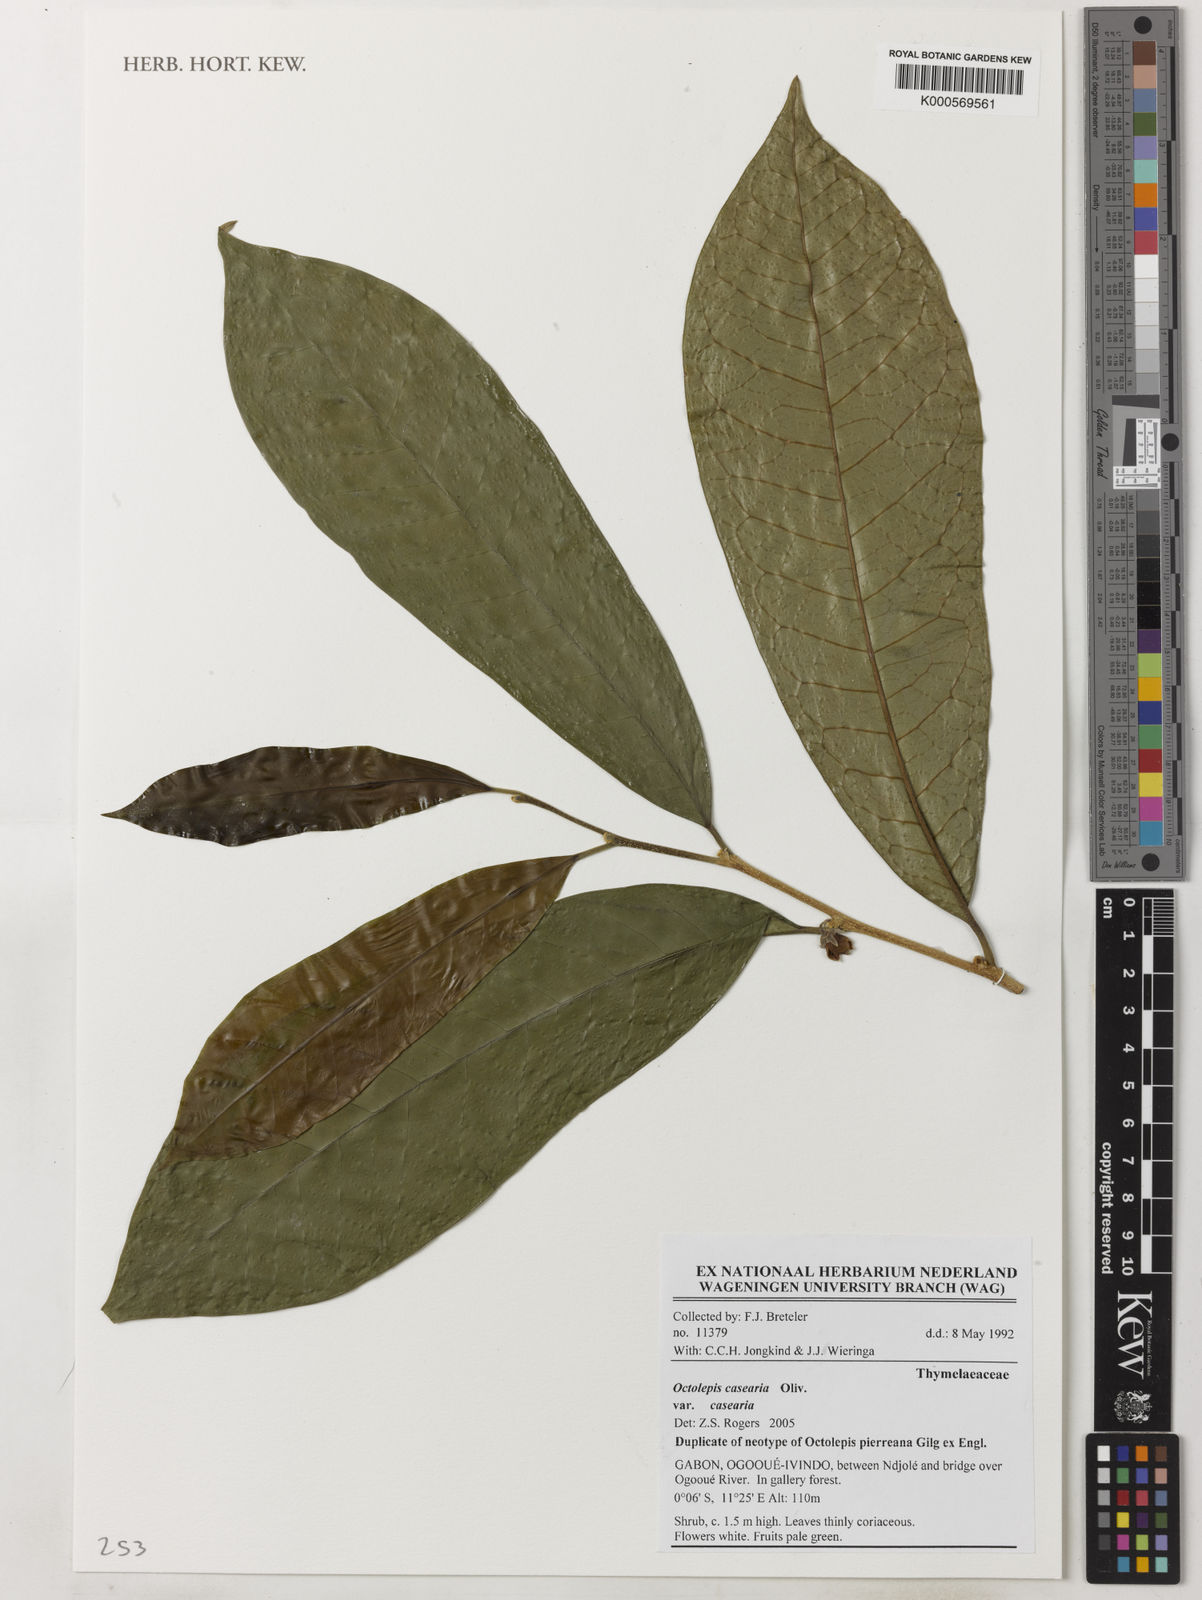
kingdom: Plantae
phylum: Tracheophyta
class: Magnoliopsida
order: Malvales
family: Thymelaeaceae
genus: Octolepis
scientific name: Octolepis casearia
